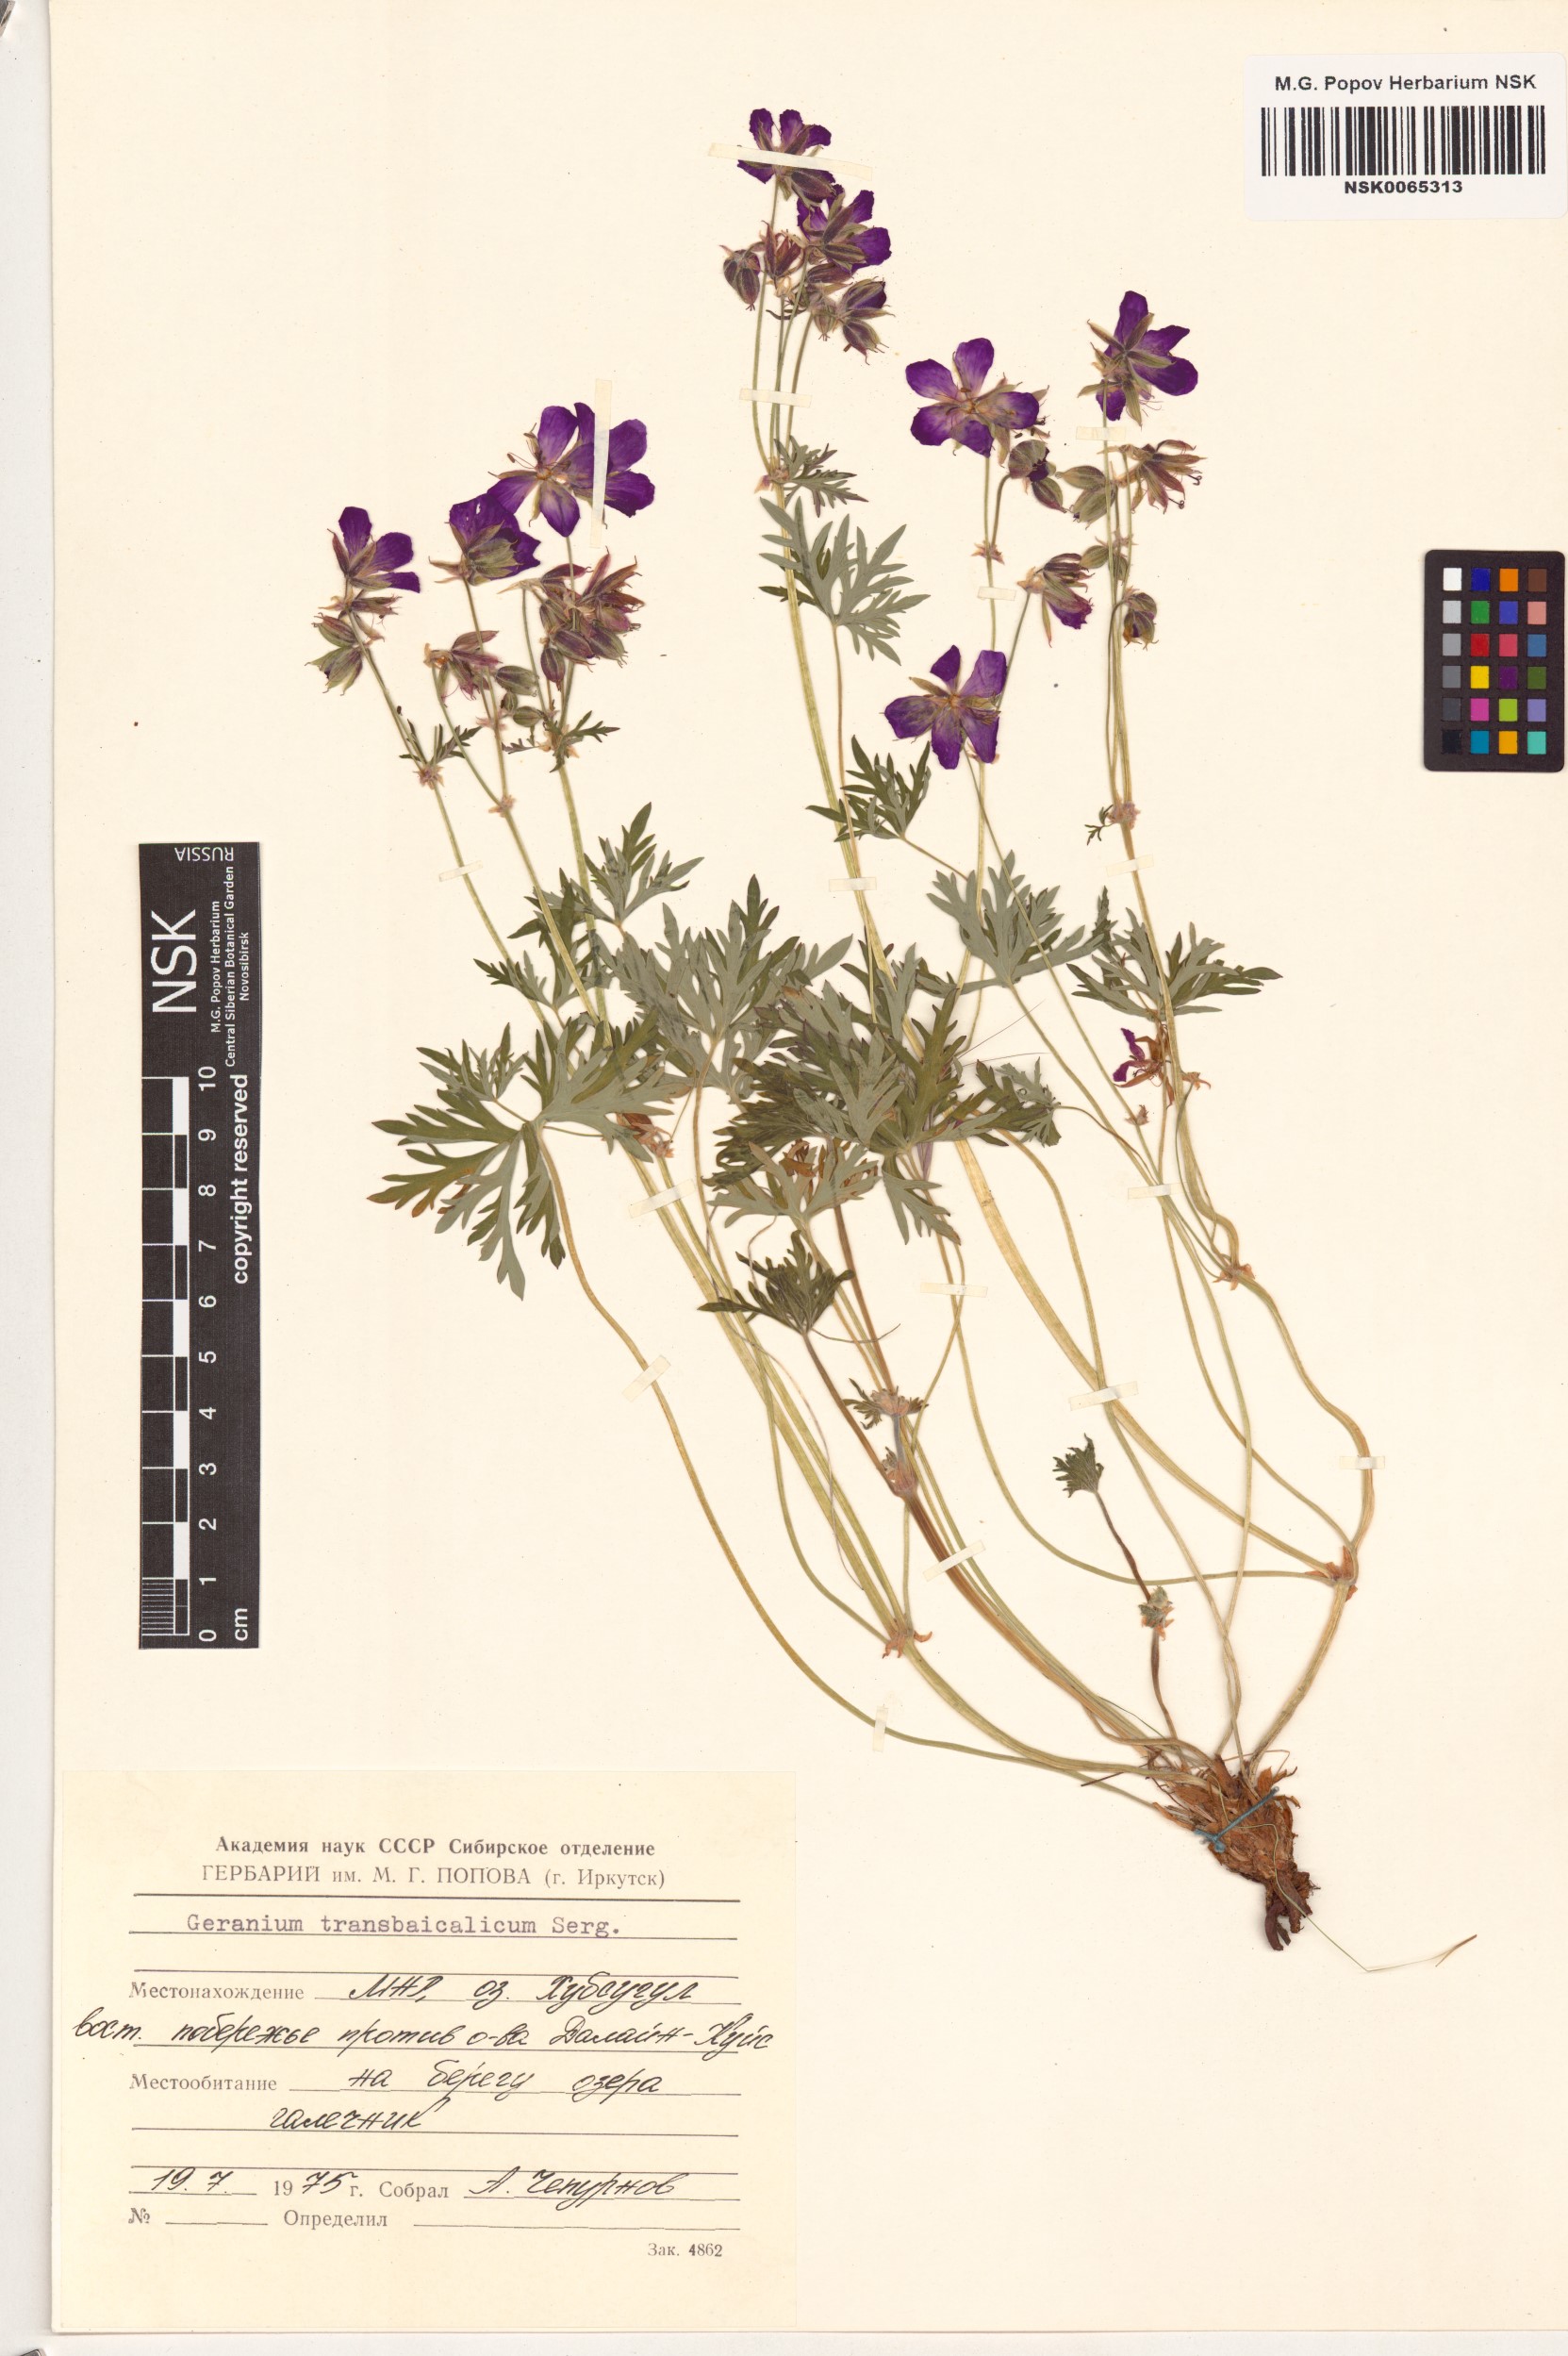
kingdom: Plantae
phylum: Tracheophyta
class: Magnoliopsida
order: Geraniales
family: Geraniaceae
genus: Geranium
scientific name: Geranium pratense
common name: Meadow crane's-bill
